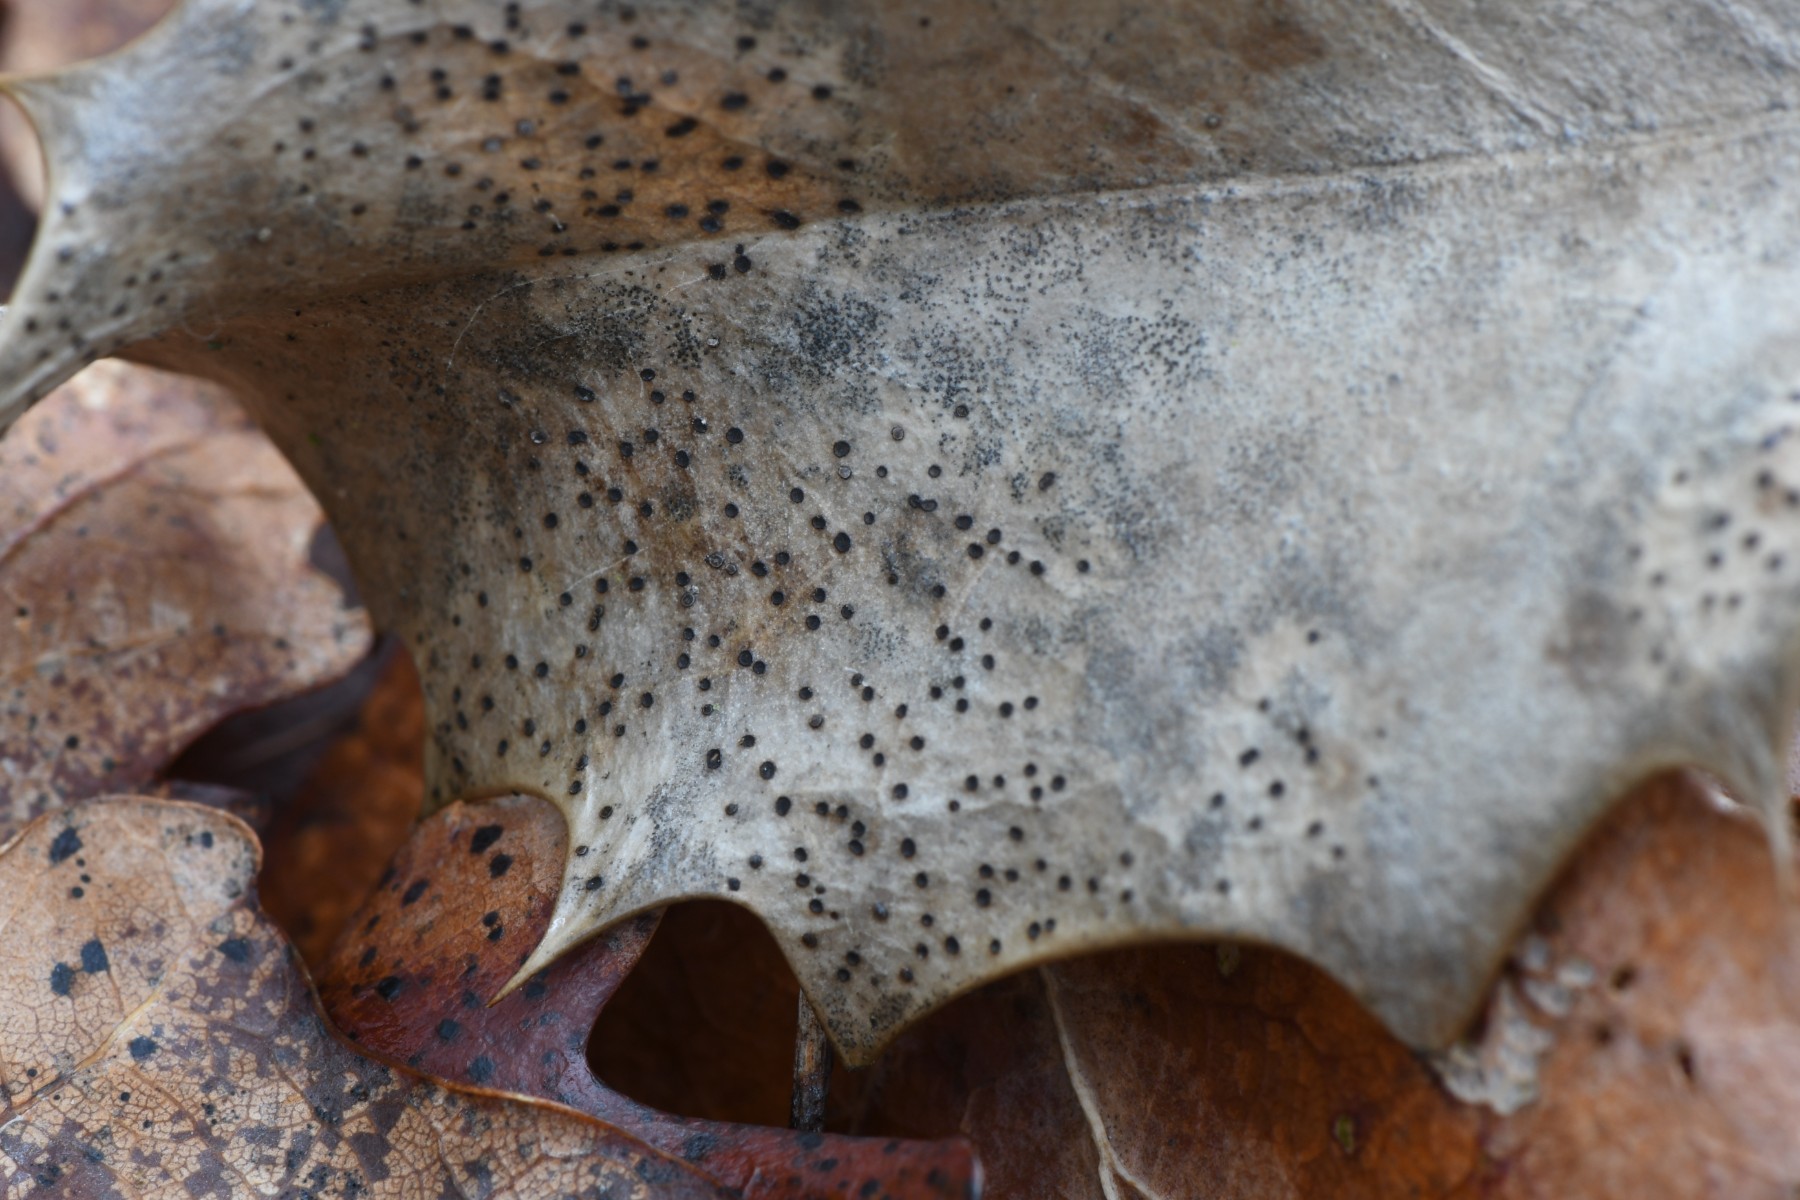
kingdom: Fungi
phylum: Ascomycota
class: Leotiomycetes
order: Helotiales
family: Cenangiaceae
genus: Trochila
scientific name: Trochila ilicina
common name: kristtorn-lågskive
